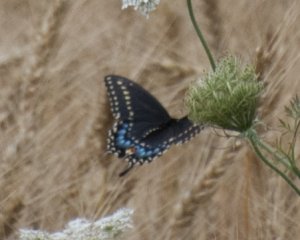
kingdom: Animalia
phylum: Arthropoda
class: Insecta
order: Lepidoptera
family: Papilionidae
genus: Papilio
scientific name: Papilio polyxenes
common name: Black Swallowtail
